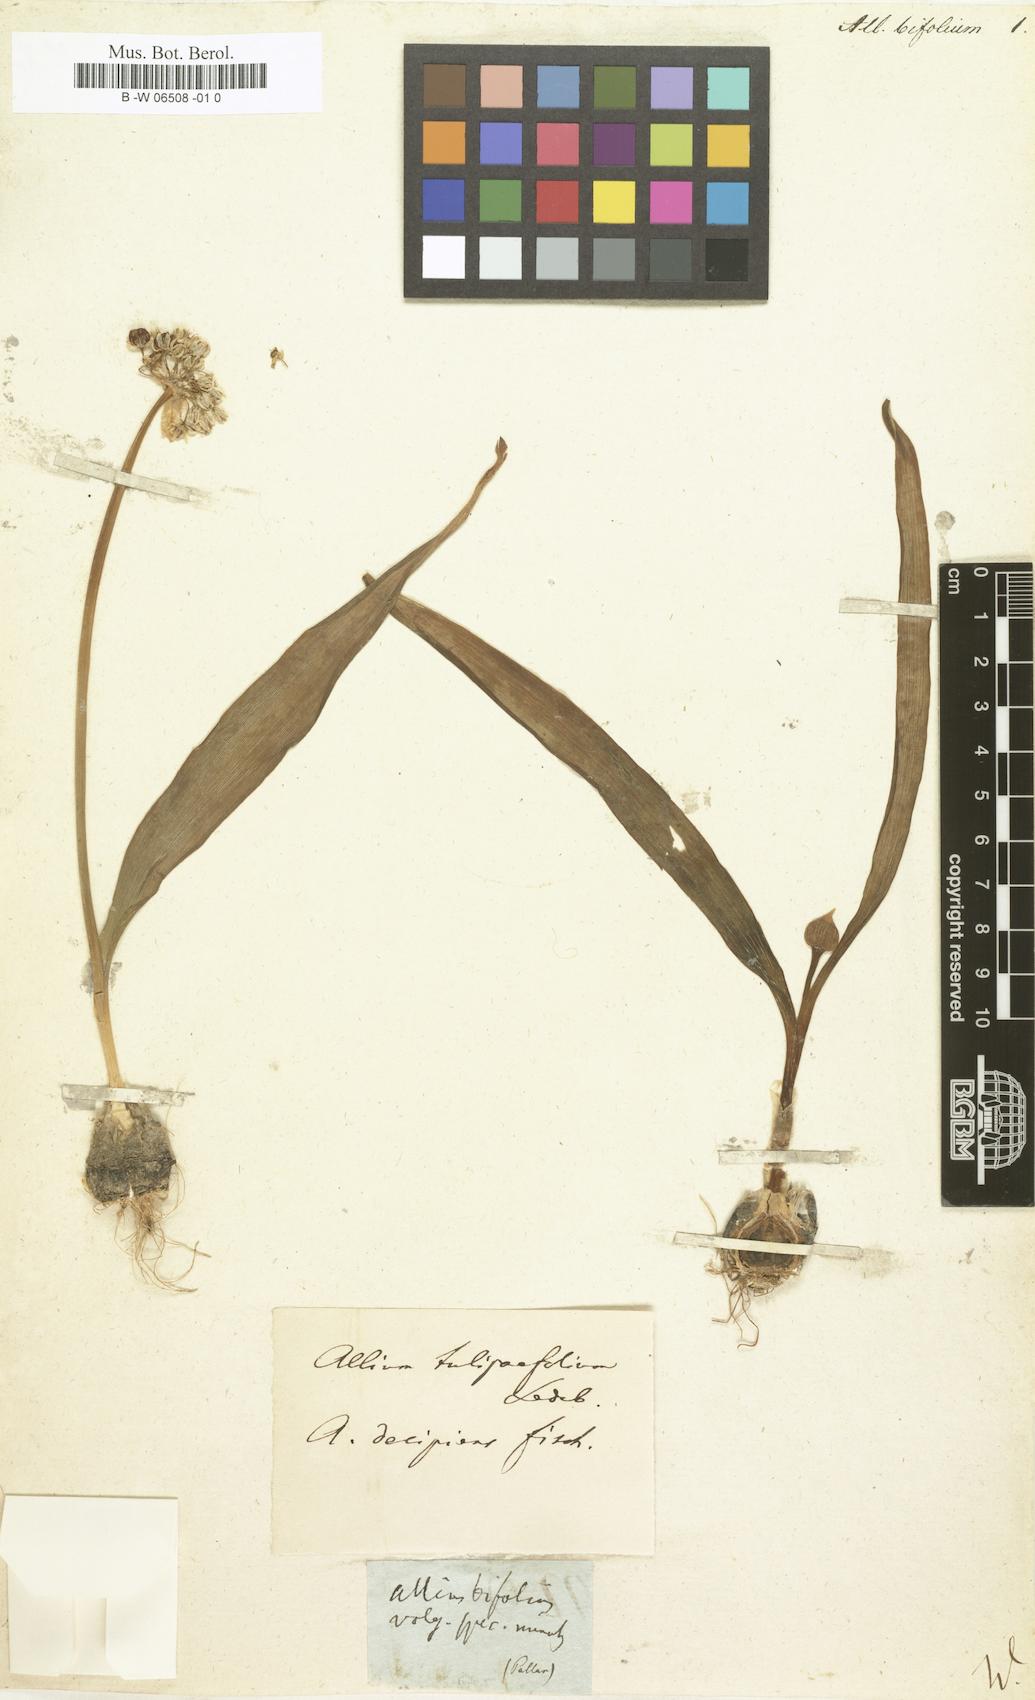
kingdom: Plantae
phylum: Tracheophyta
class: Liliopsida
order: Asparagales
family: Amaryllidaceae
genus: Allium
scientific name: Allium decipiens
